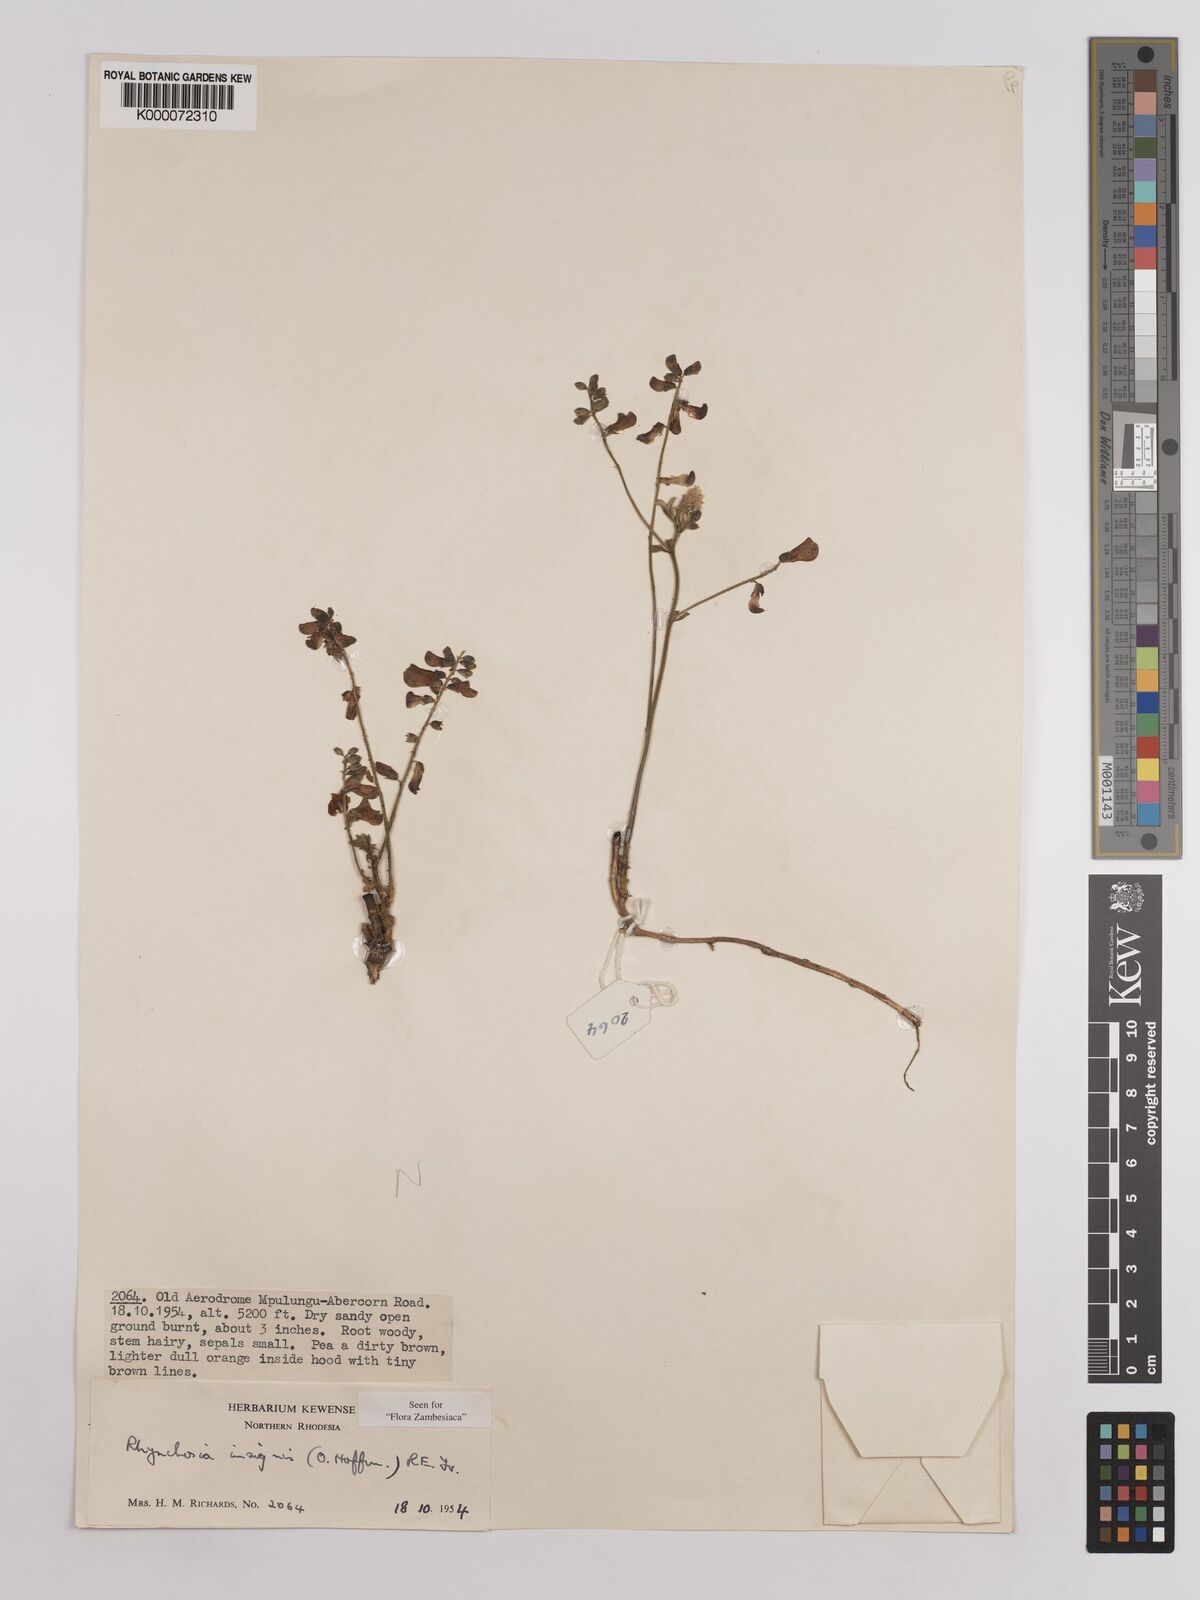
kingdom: Plantae
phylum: Tracheophyta
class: Magnoliopsida
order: Fabales
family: Fabaceae
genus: Rhynchosia
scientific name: Rhynchosia insignis
